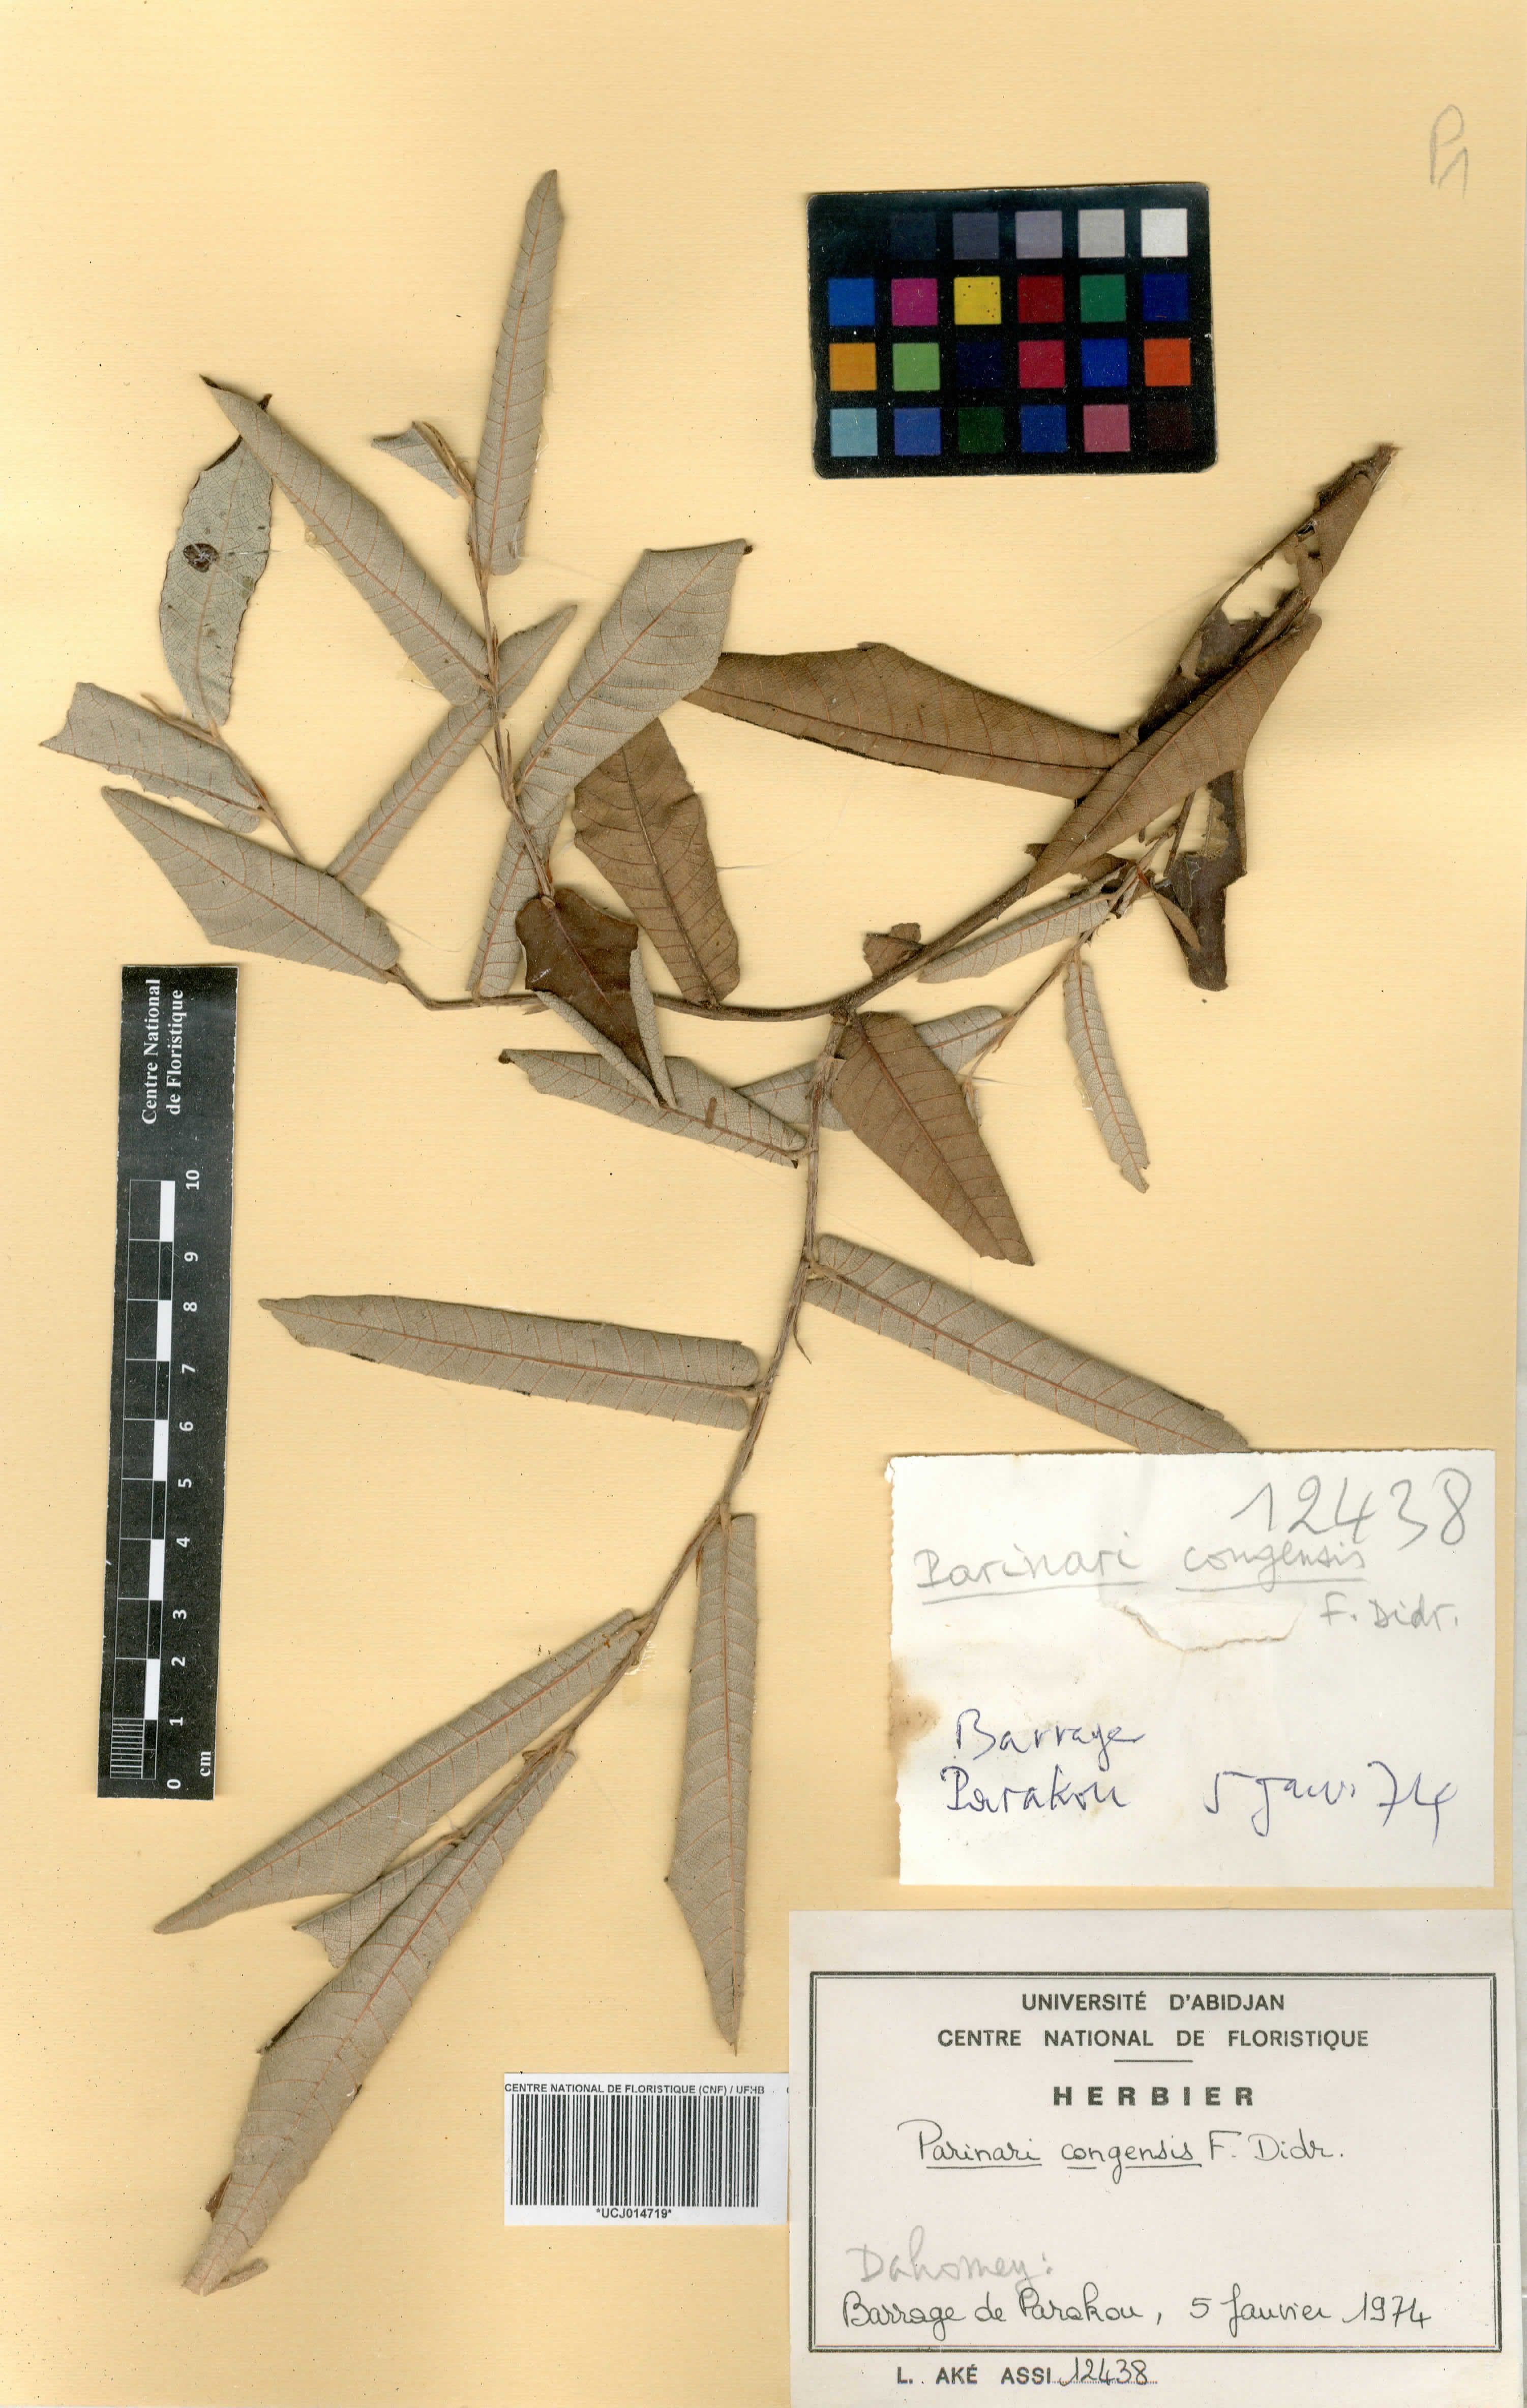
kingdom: Plantae
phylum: Tracheophyta
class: Magnoliopsida
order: Malpighiales
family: Chrysobalanaceae
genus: Parinari
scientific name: Parinari congensis
